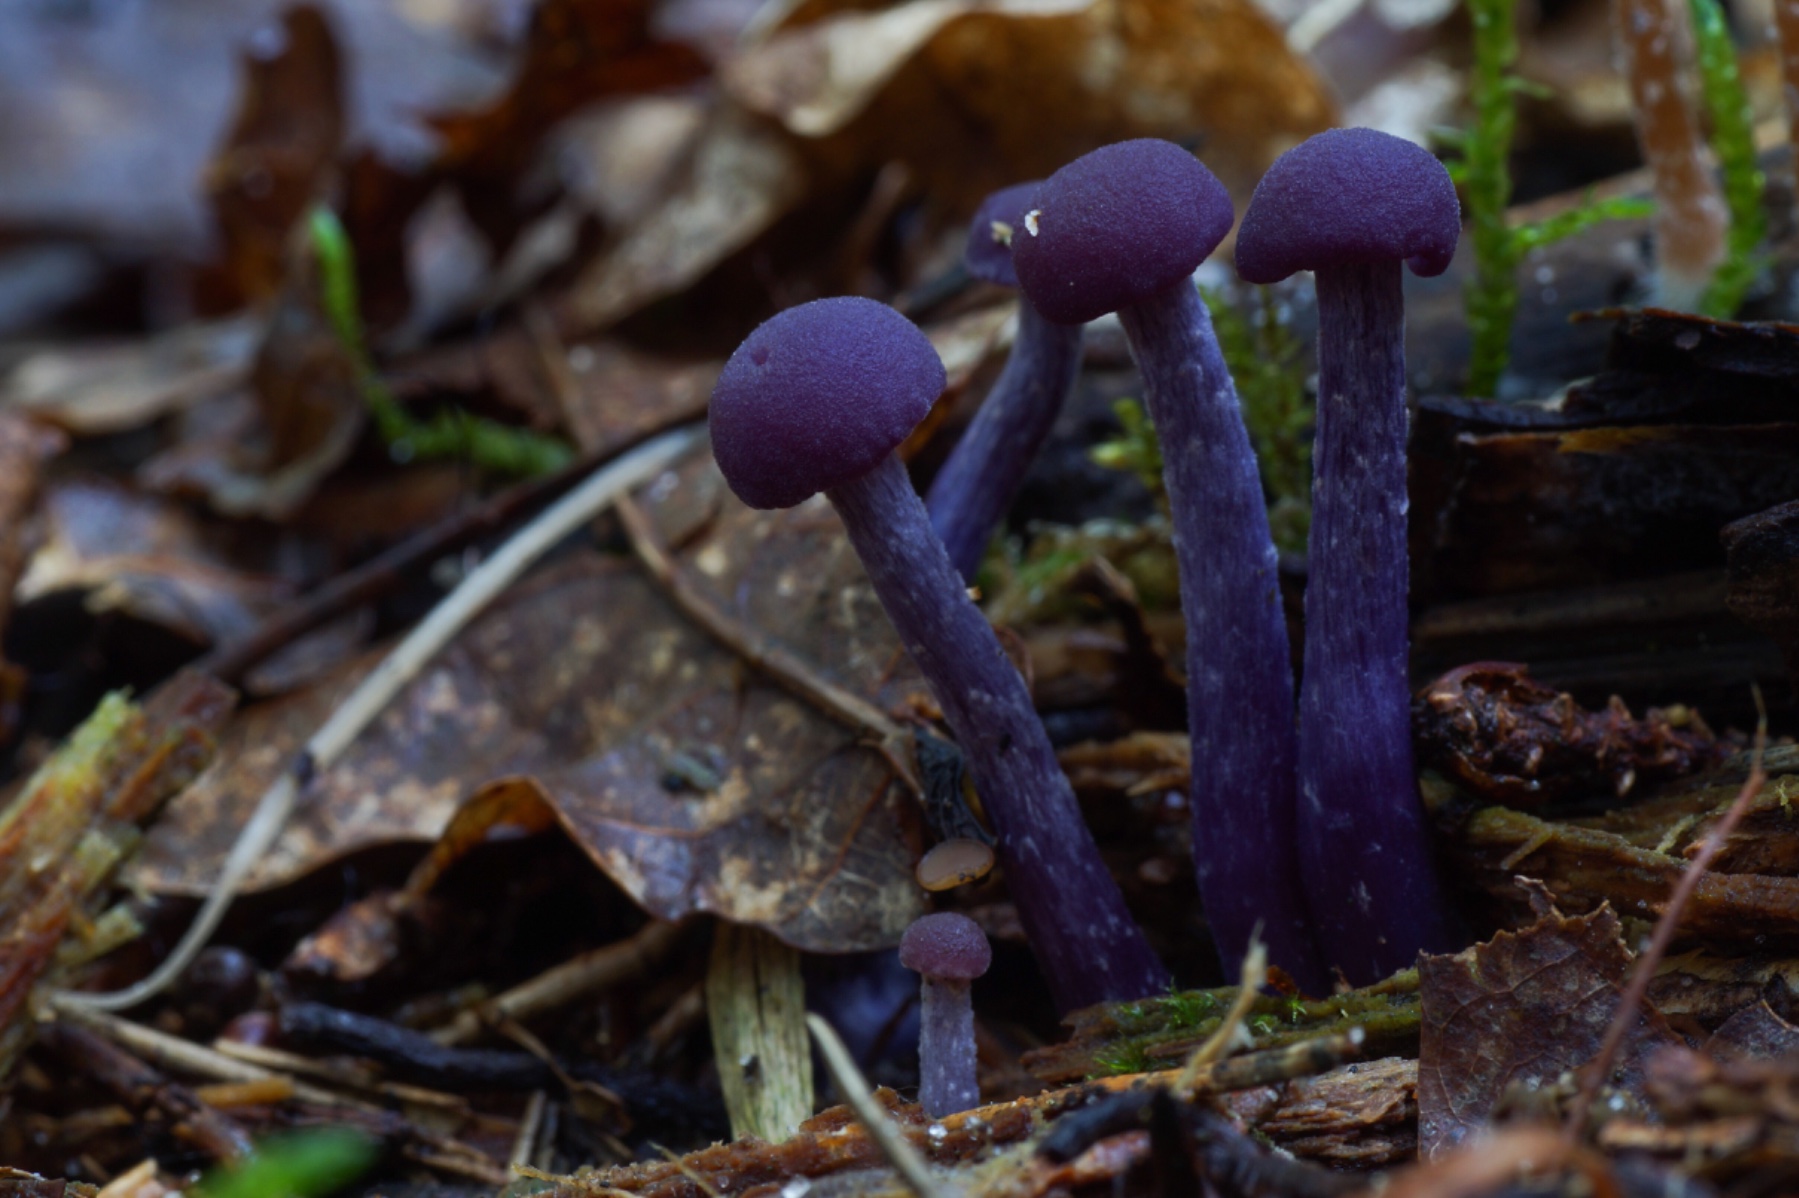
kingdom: Fungi
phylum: Basidiomycota
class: Agaricomycetes
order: Agaricales
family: Hydnangiaceae
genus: Laccaria
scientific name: Laccaria amethystina
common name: violet ametysthat
